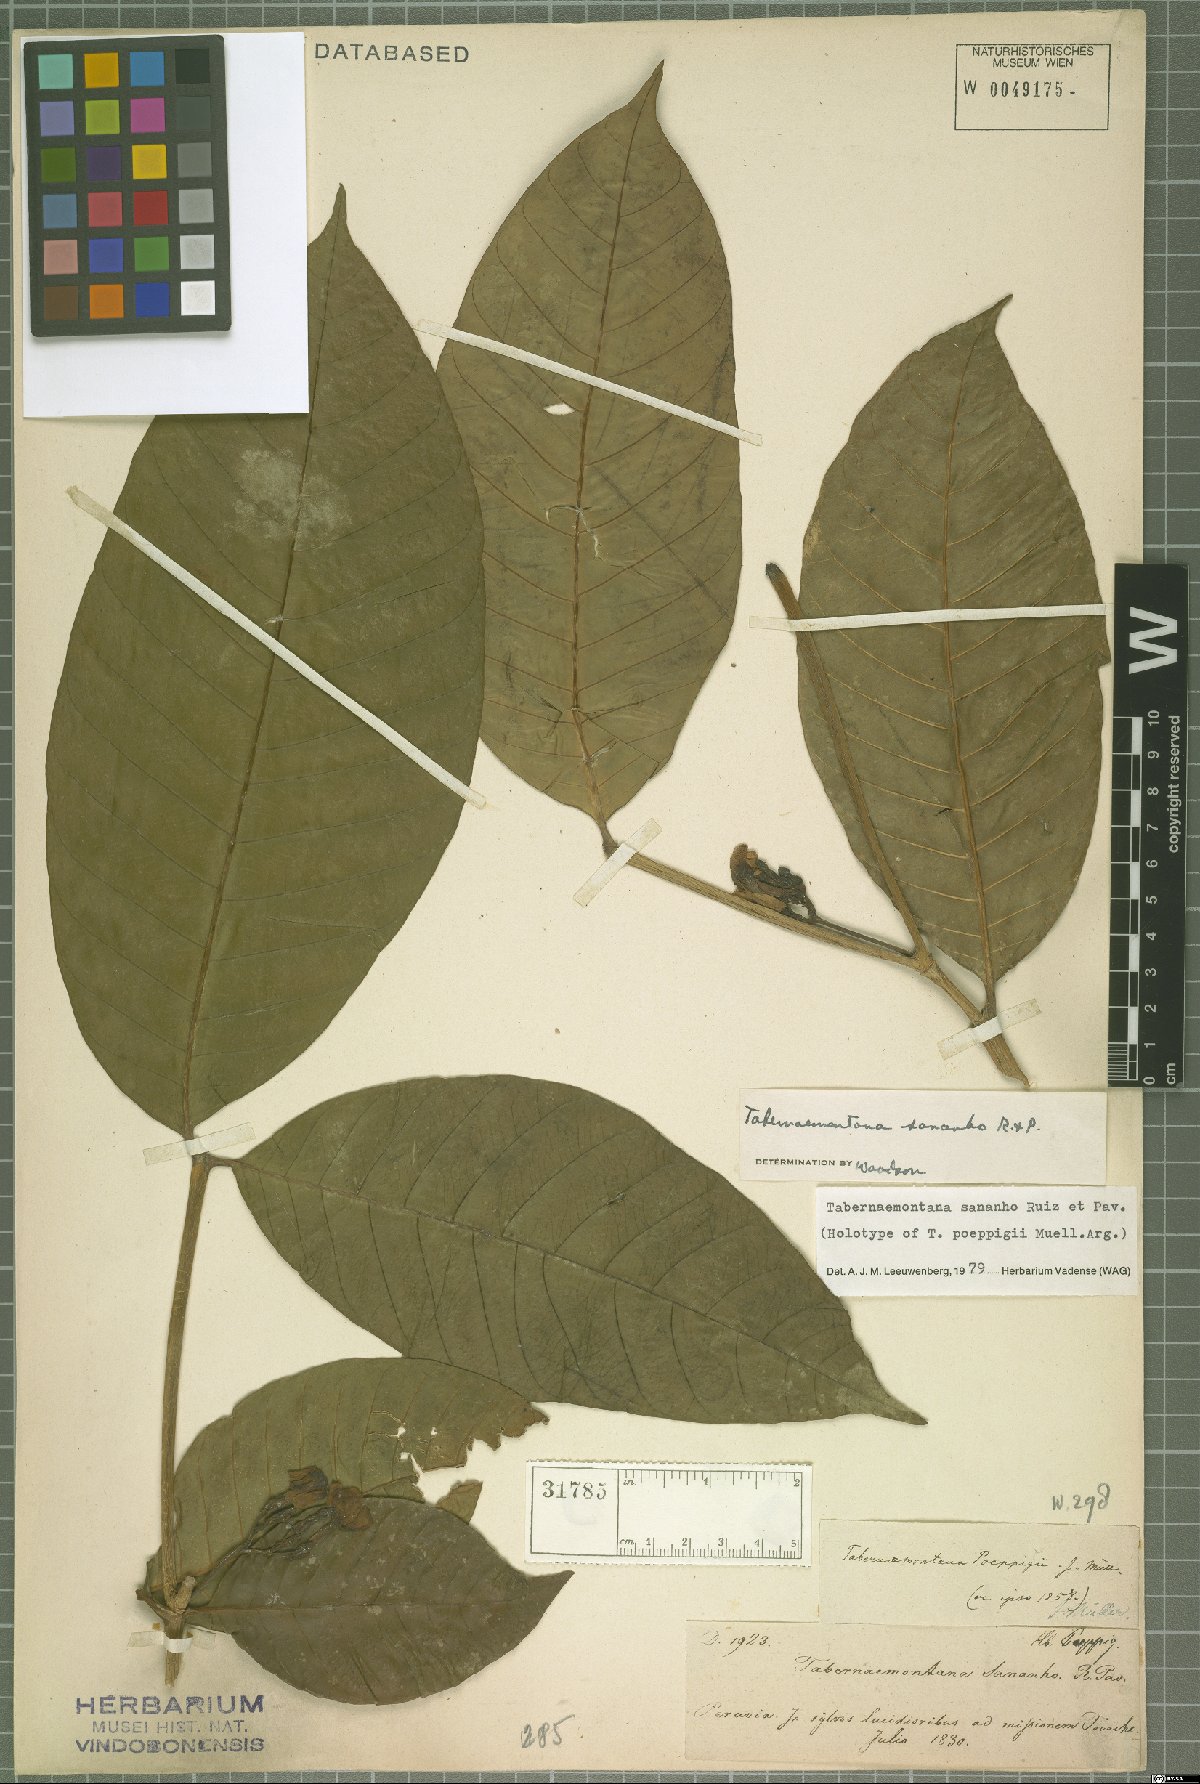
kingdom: Plantae
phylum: Tracheophyta
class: Magnoliopsida
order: Gentianales
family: Apocynaceae
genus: Tabernaemontana
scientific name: Tabernaemontana sananho
